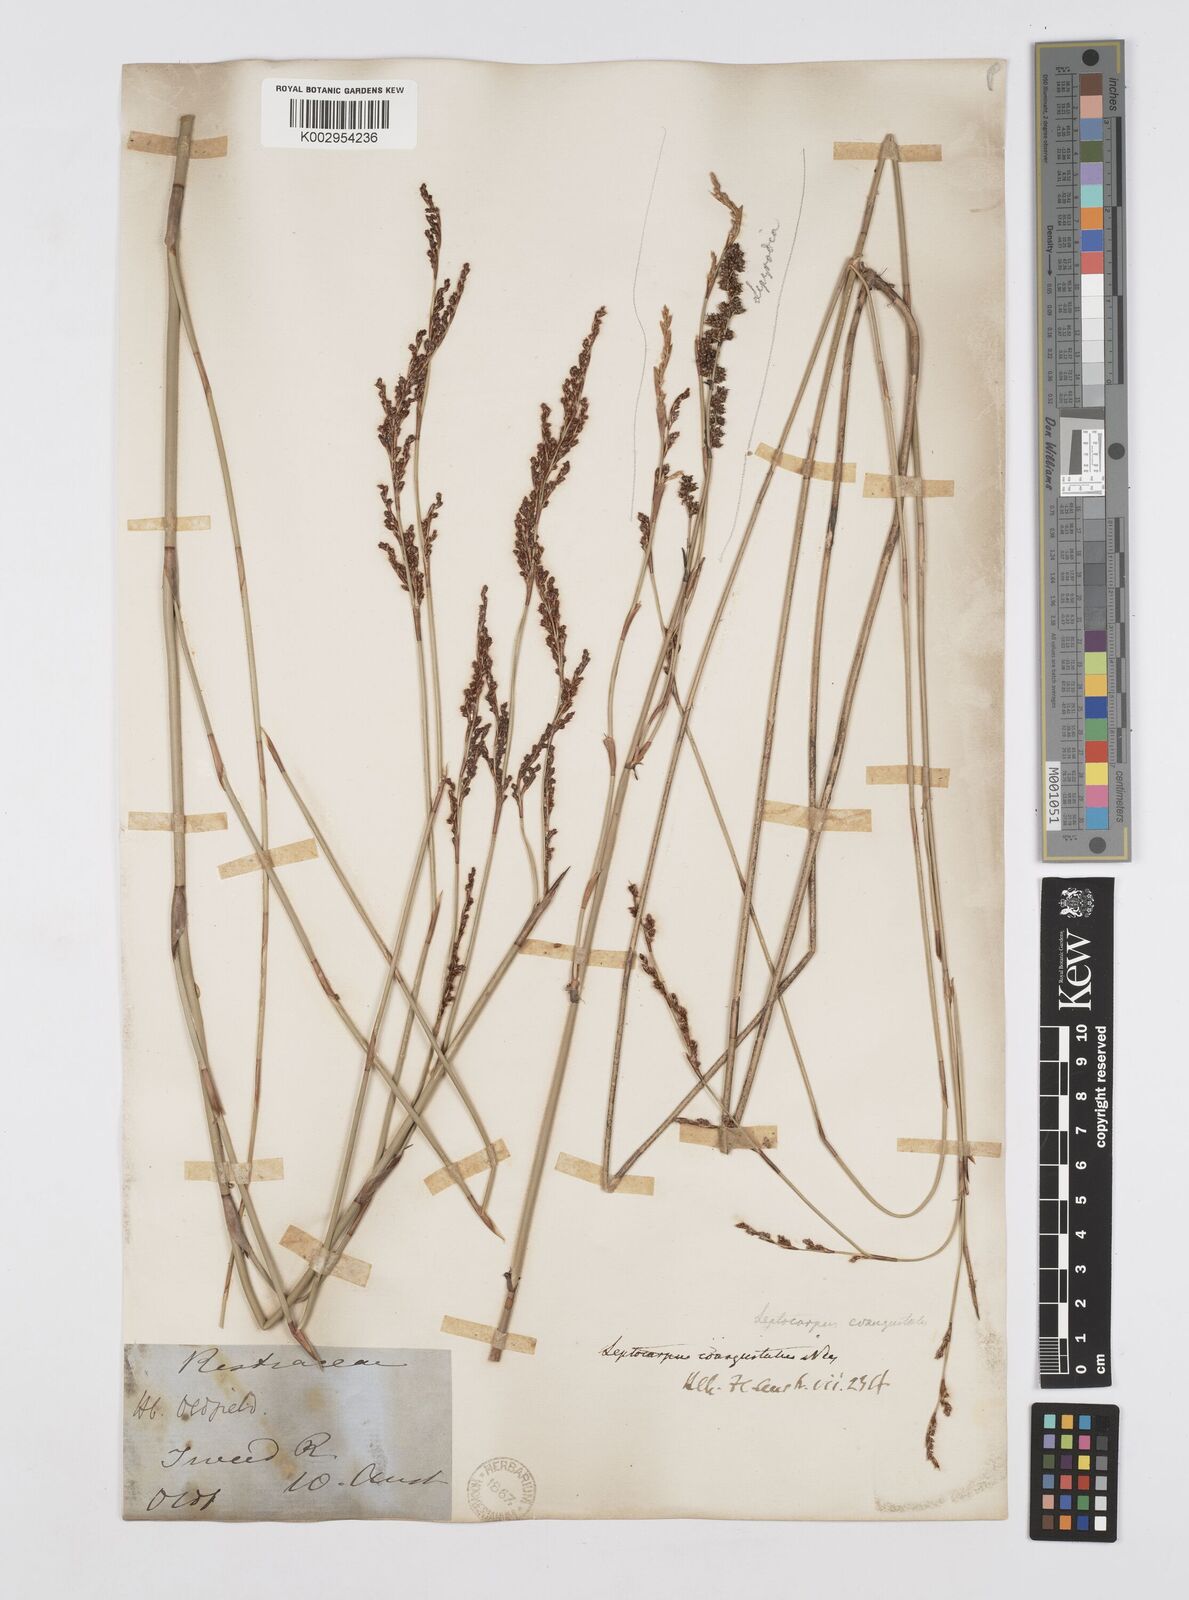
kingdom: Plantae
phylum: Tracheophyta
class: Liliopsida
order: Poales
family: Restionaceae
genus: Leptocarpus
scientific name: Leptocarpus coangustatus
